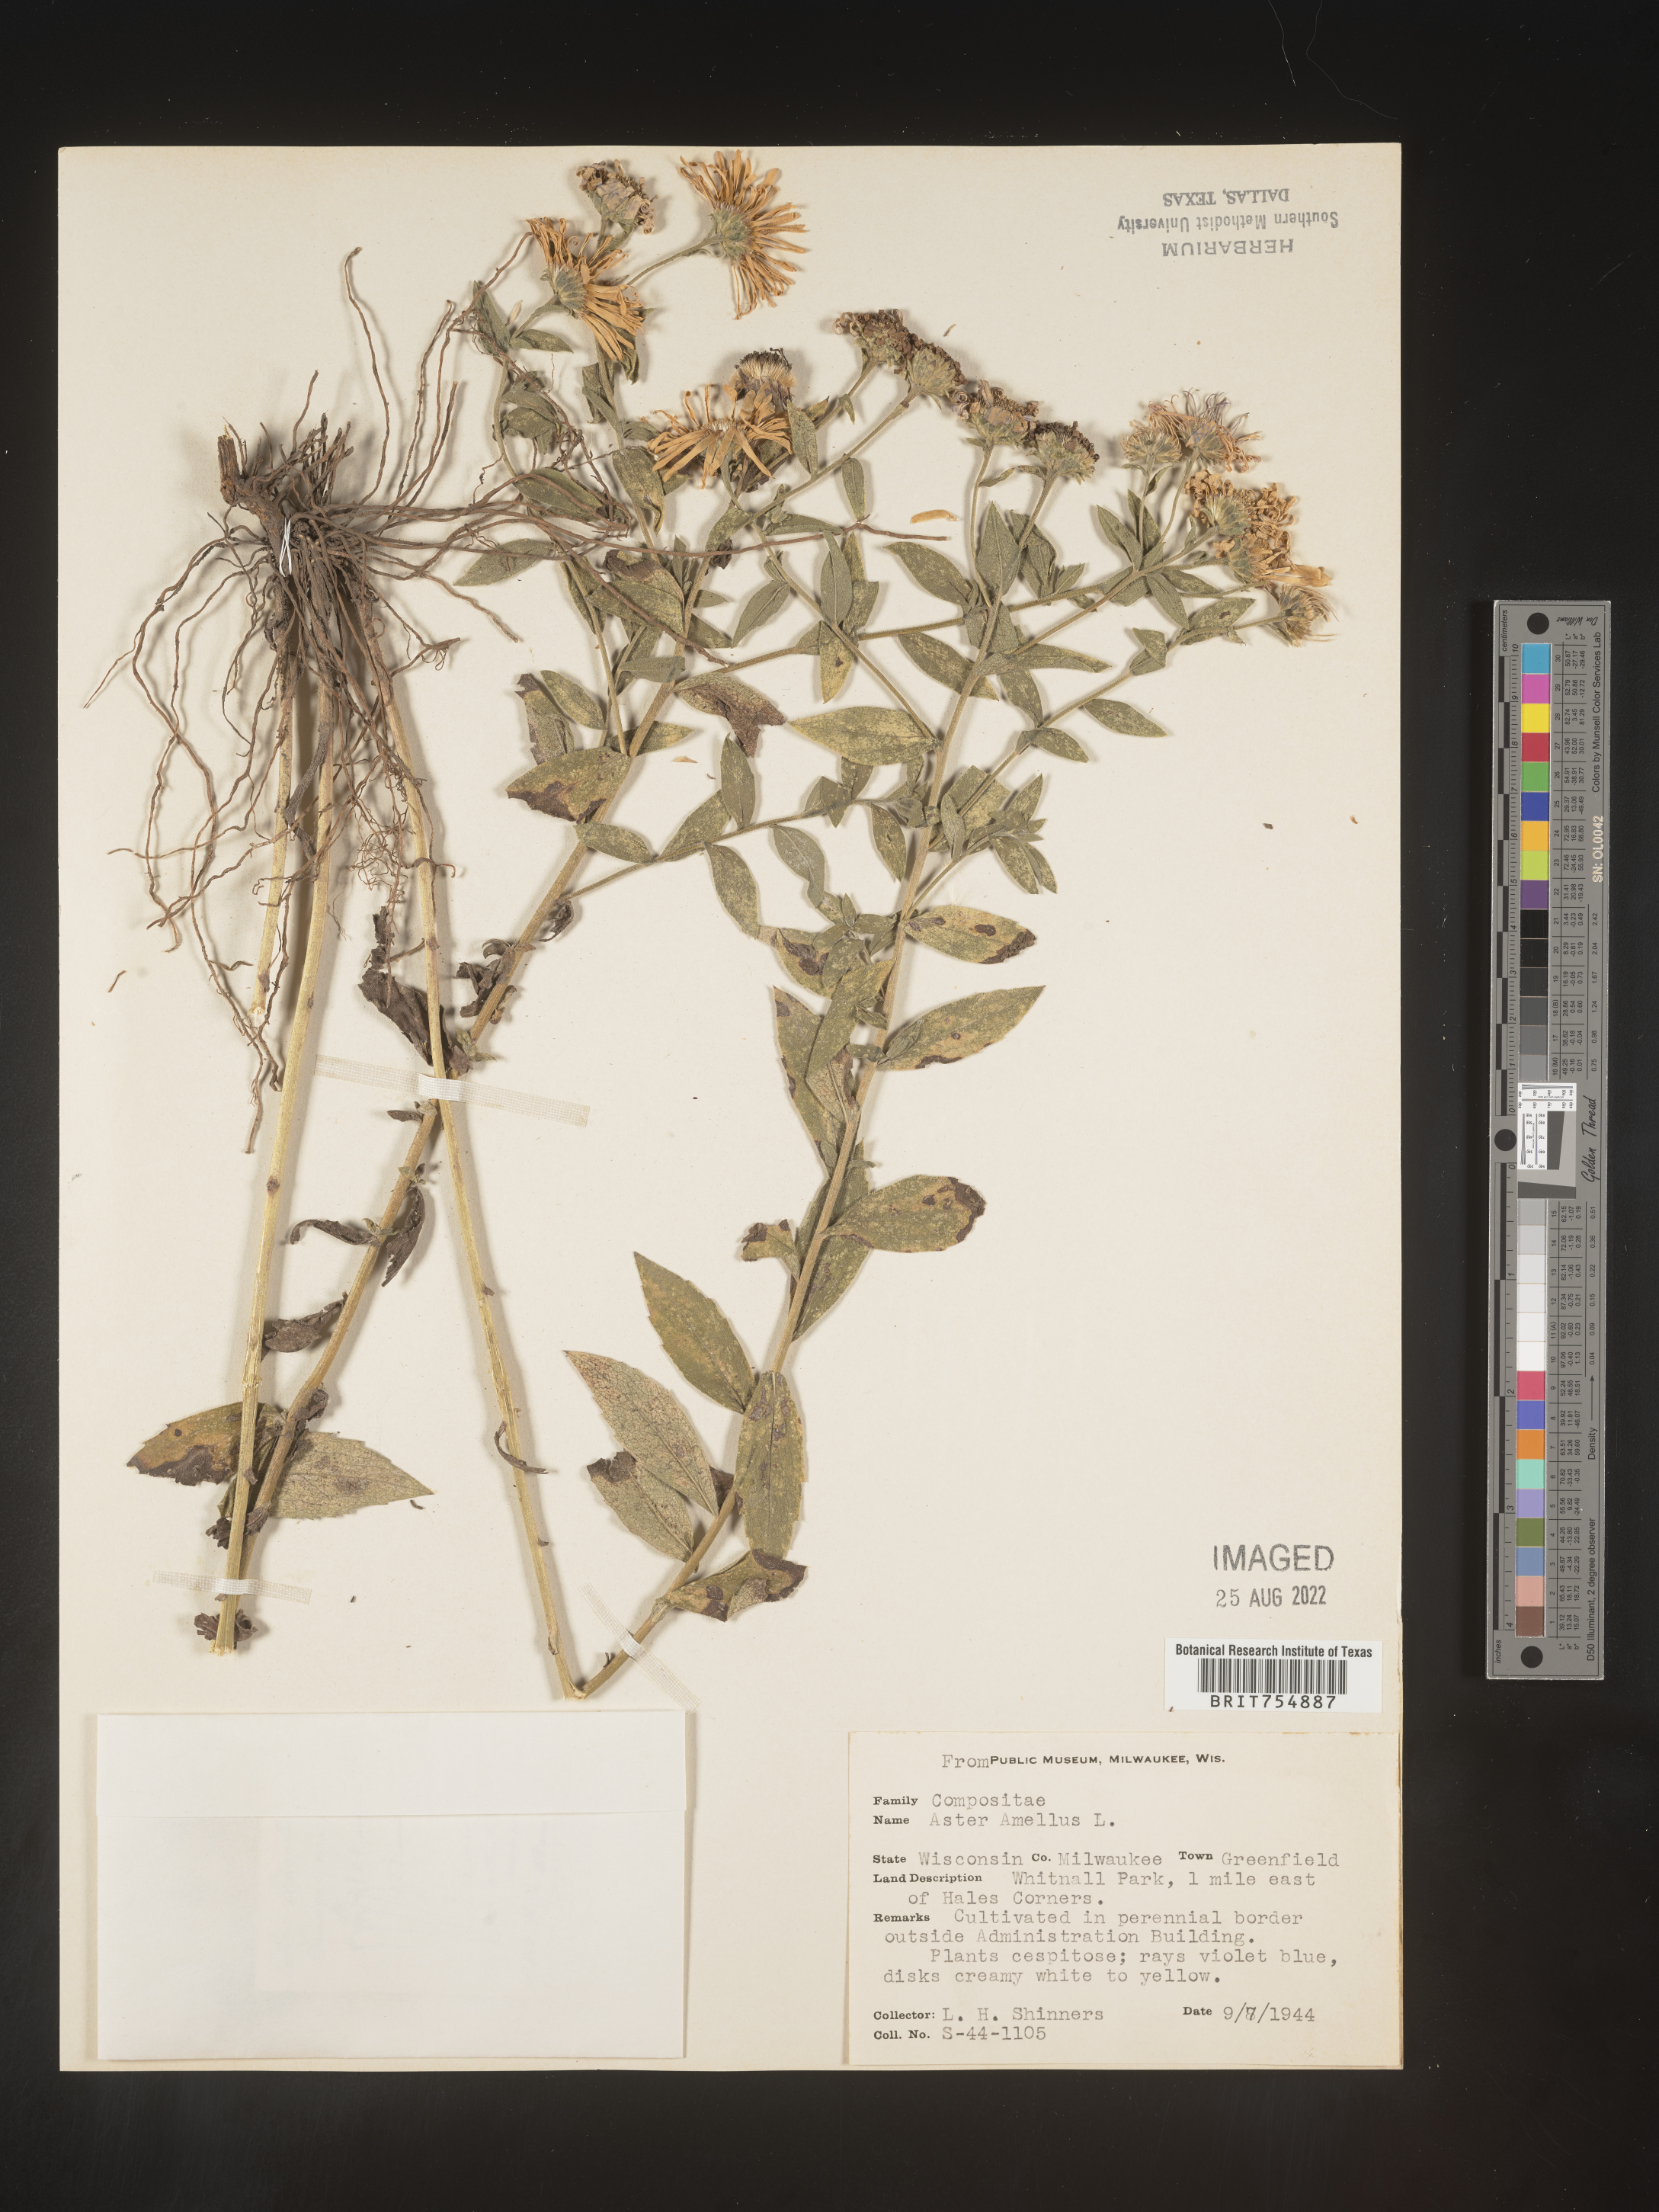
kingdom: Plantae
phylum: Tracheophyta
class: Magnoliopsida
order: Asterales
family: Asteraceae
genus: Symphyotrichum
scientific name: Symphyotrichum
